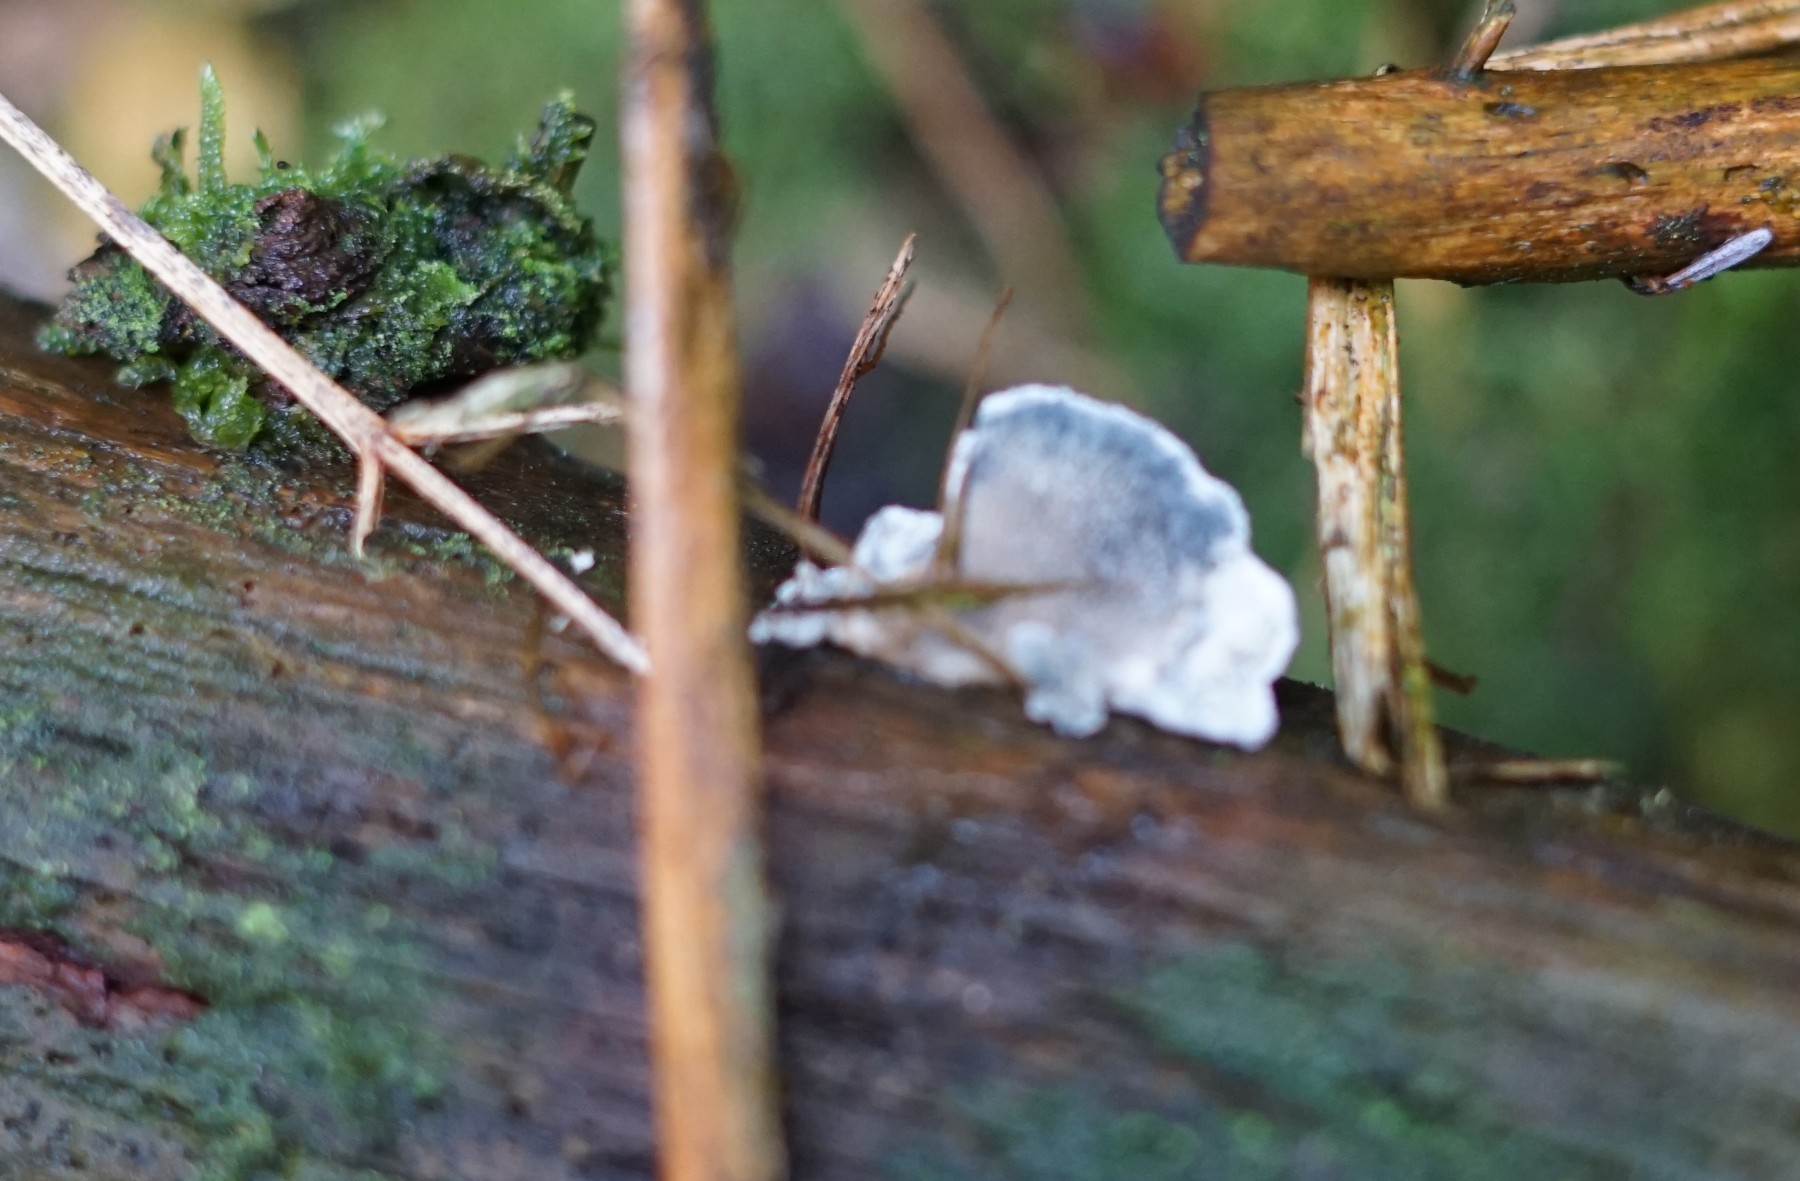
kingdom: Fungi
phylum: Basidiomycota
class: Agaricomycetes
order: Polyporales
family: Polyporaceae
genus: Cyanosporus
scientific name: Cyanosporus caesius
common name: blålig kødporesvamp
